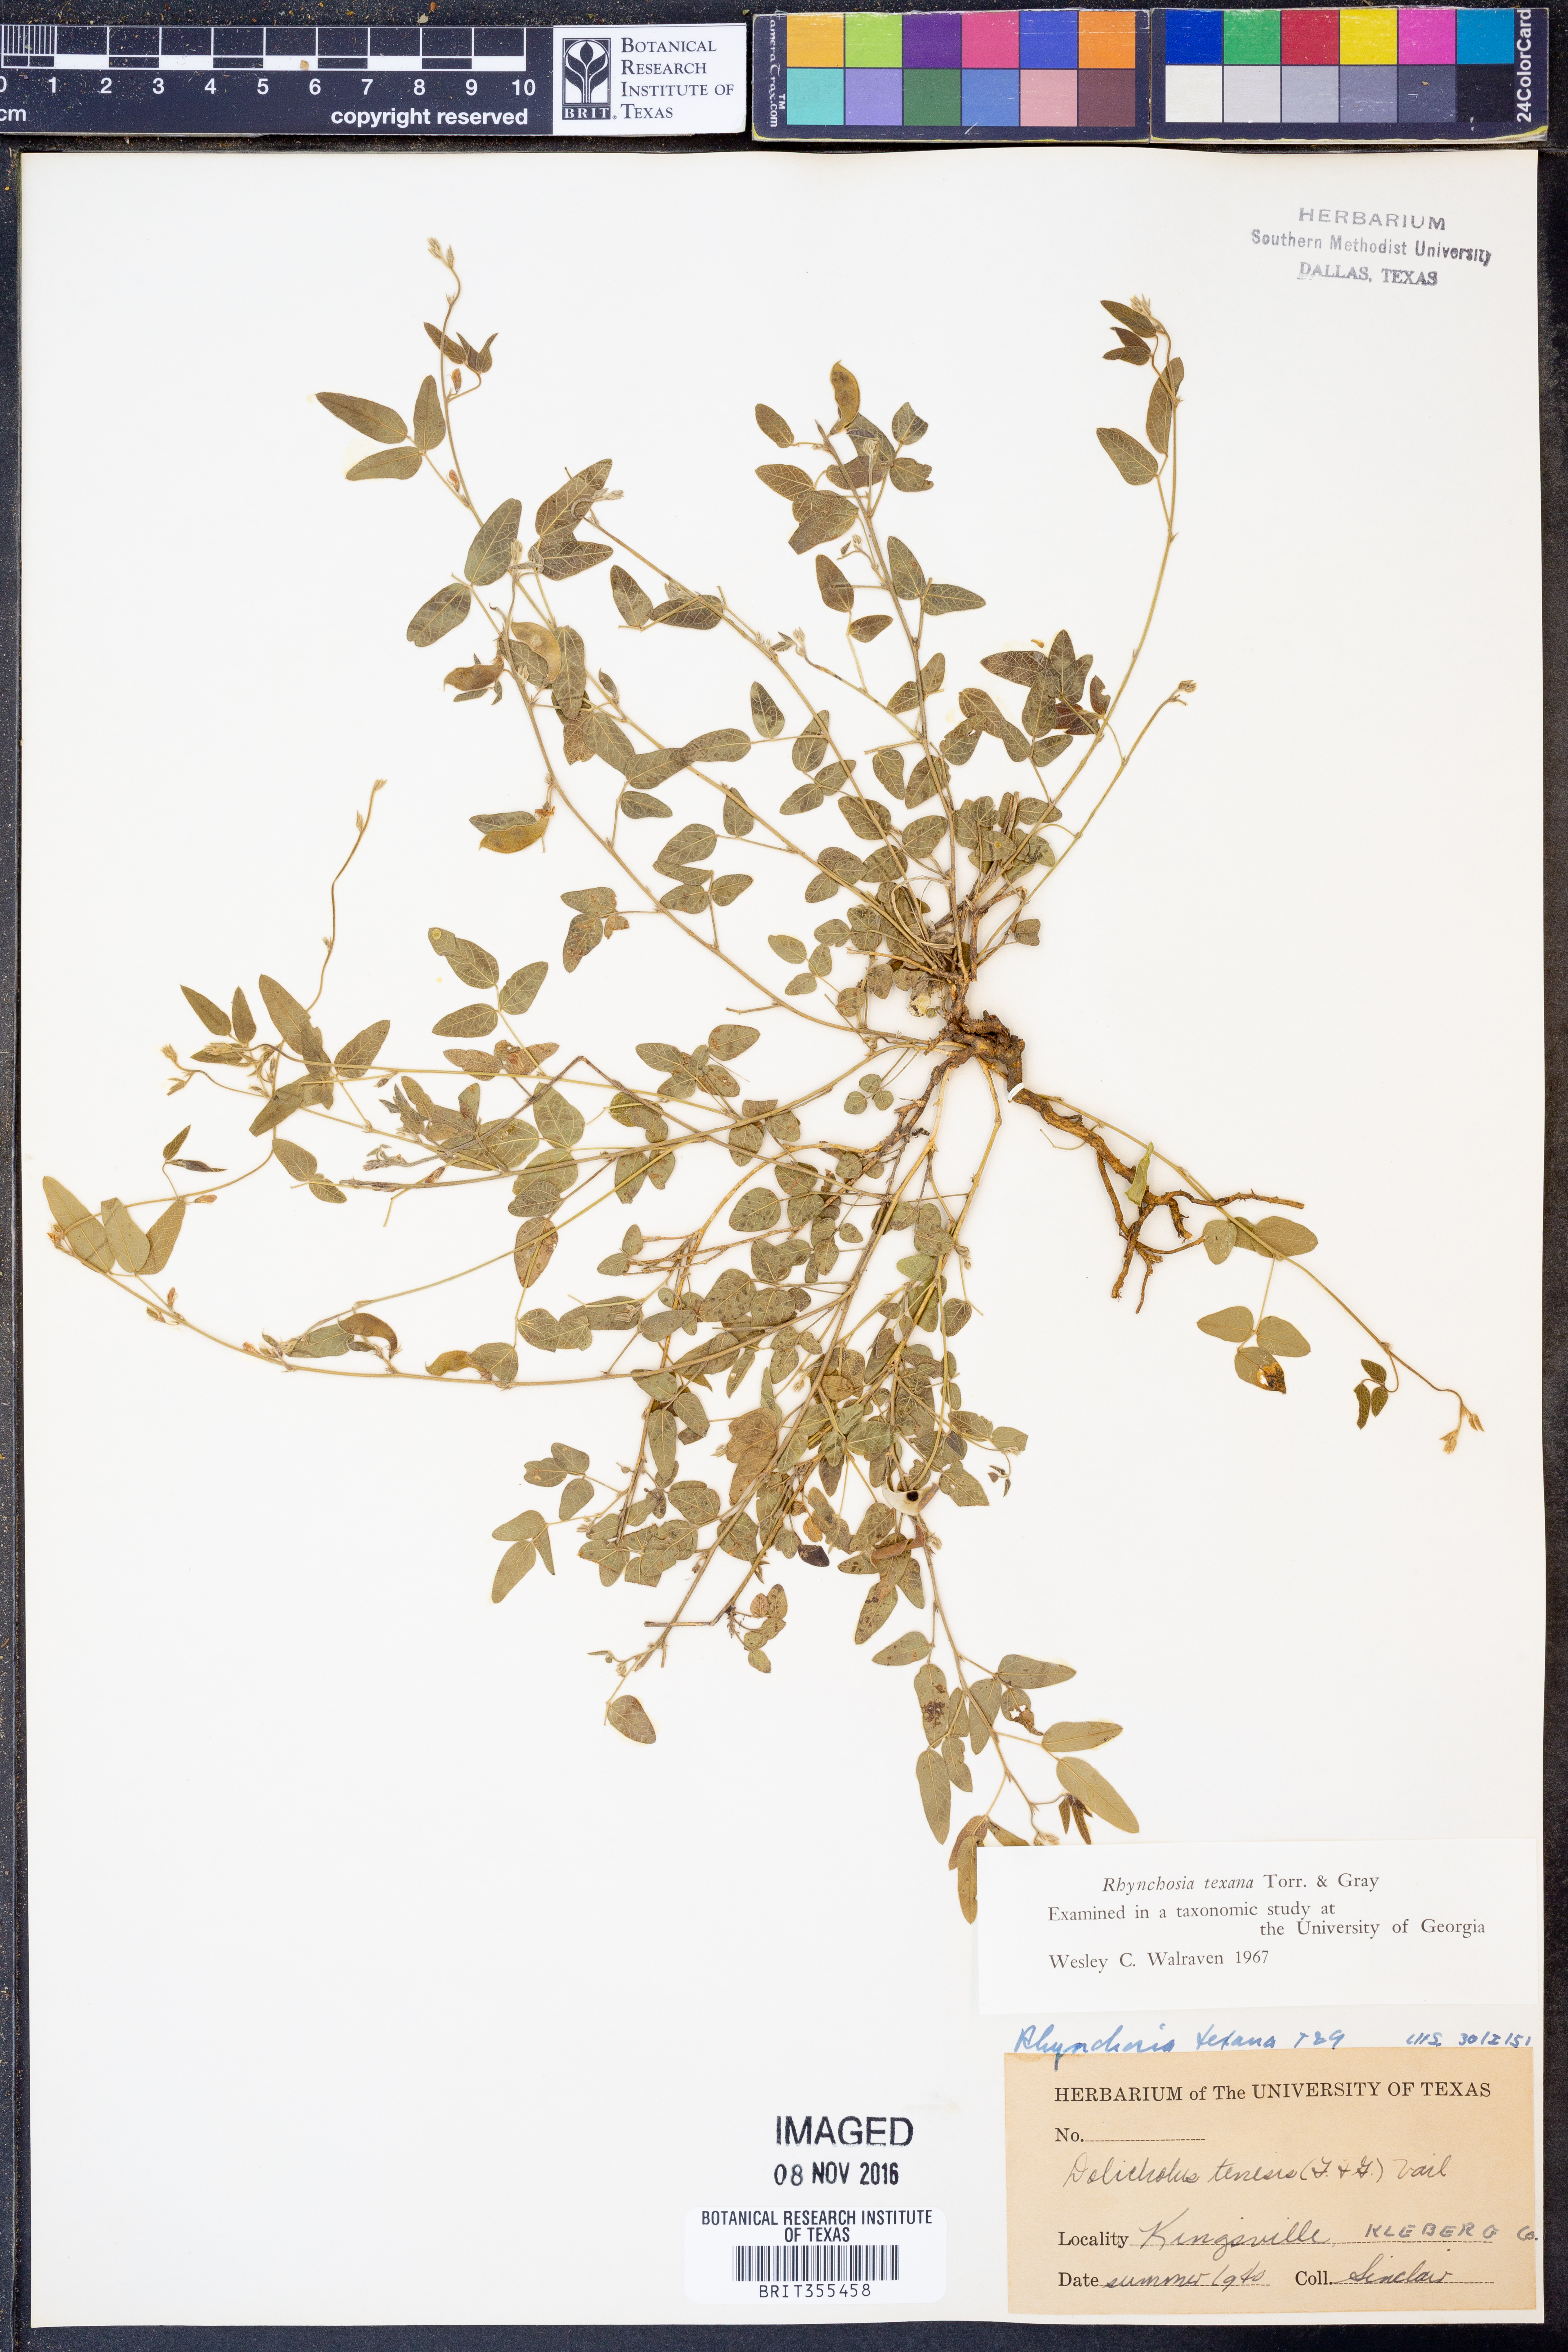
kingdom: Plantae
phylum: Tracheophyta
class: Magnoliopsida
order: Fabales
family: Fabaceae
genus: Rhynchosia
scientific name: Rhynchosia senna
